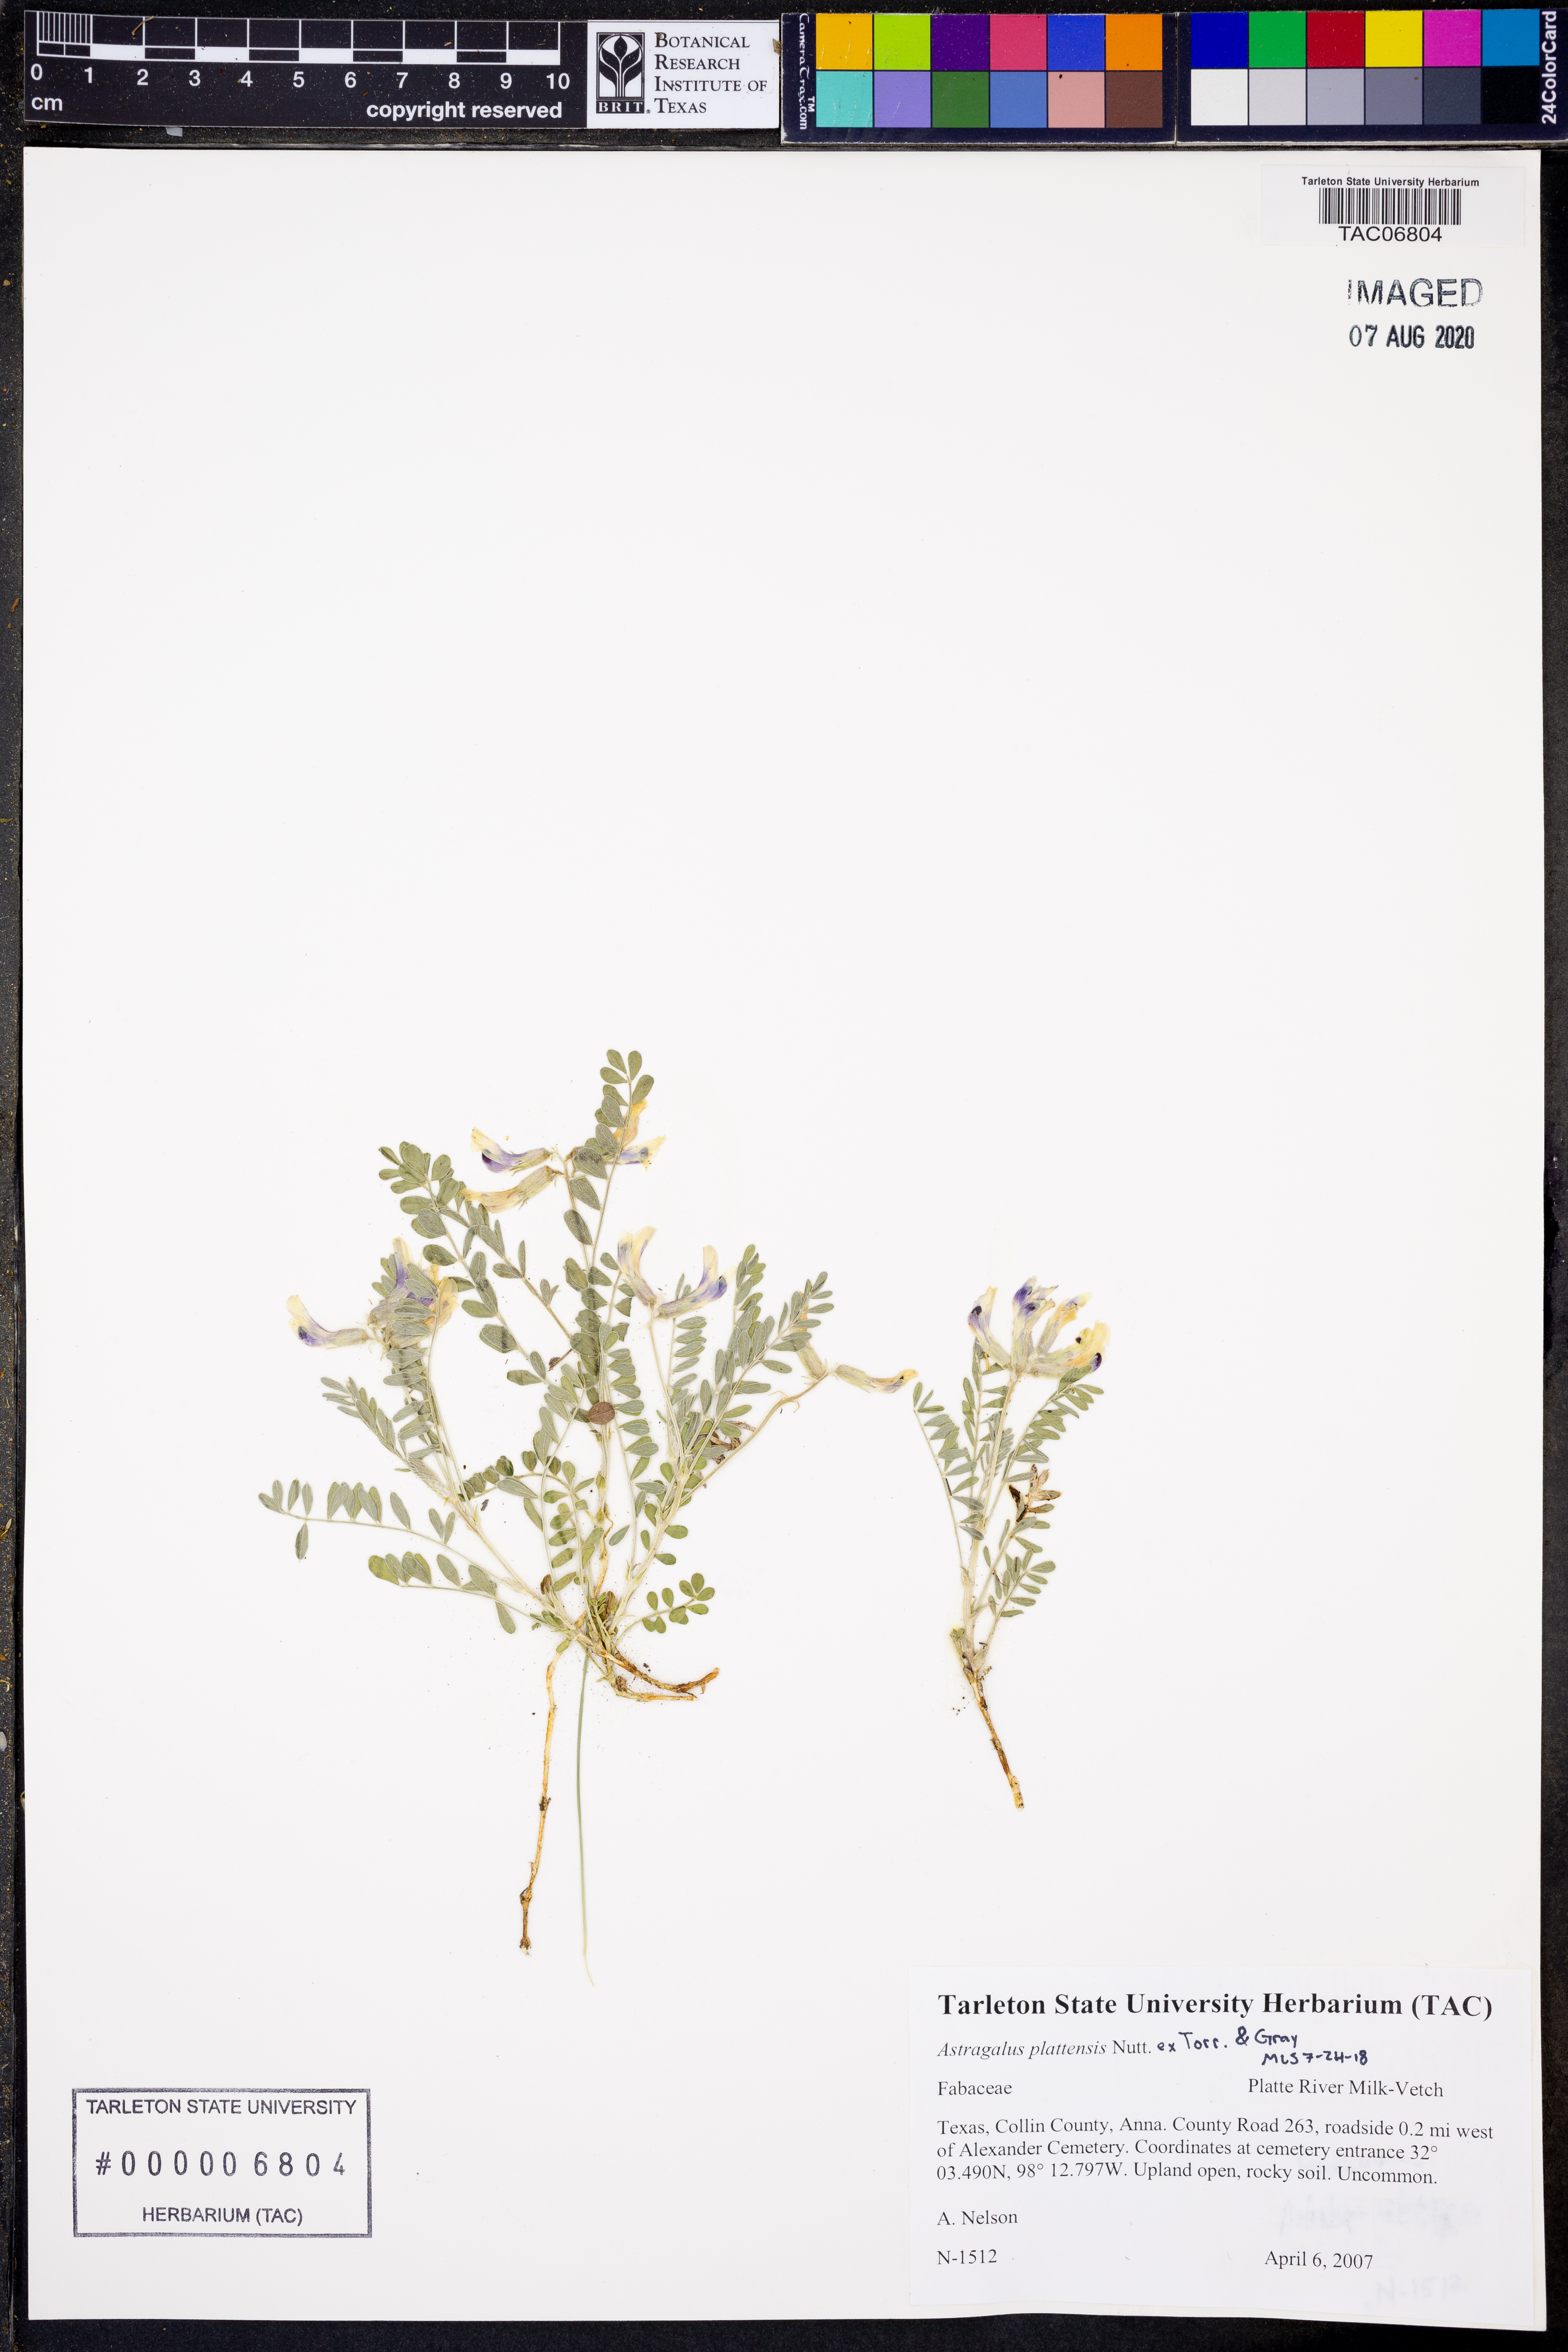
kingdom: Plantae
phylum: Tracheophyta
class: Magnoliopsida
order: Fabales
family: Fabaceae
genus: Astragalus
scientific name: Astragalus plattensis
